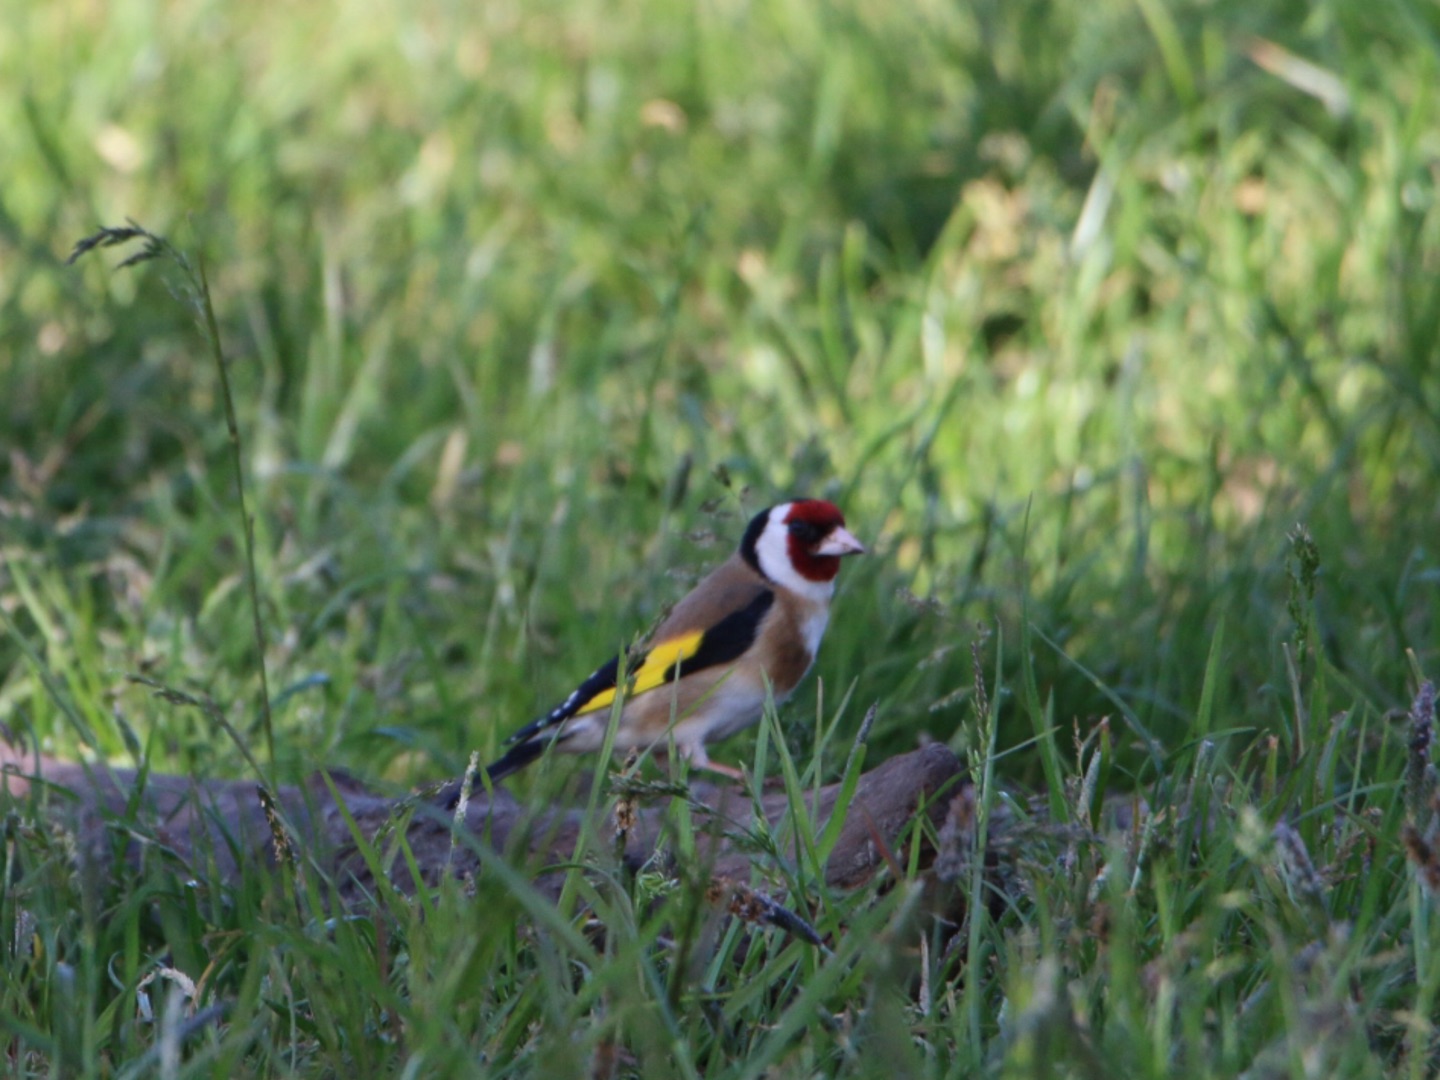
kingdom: Animalia
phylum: Chordata
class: Aves
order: Passeriformes
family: Fringillidae
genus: Carduelis
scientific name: Carduelis carduelis
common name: Stillits
